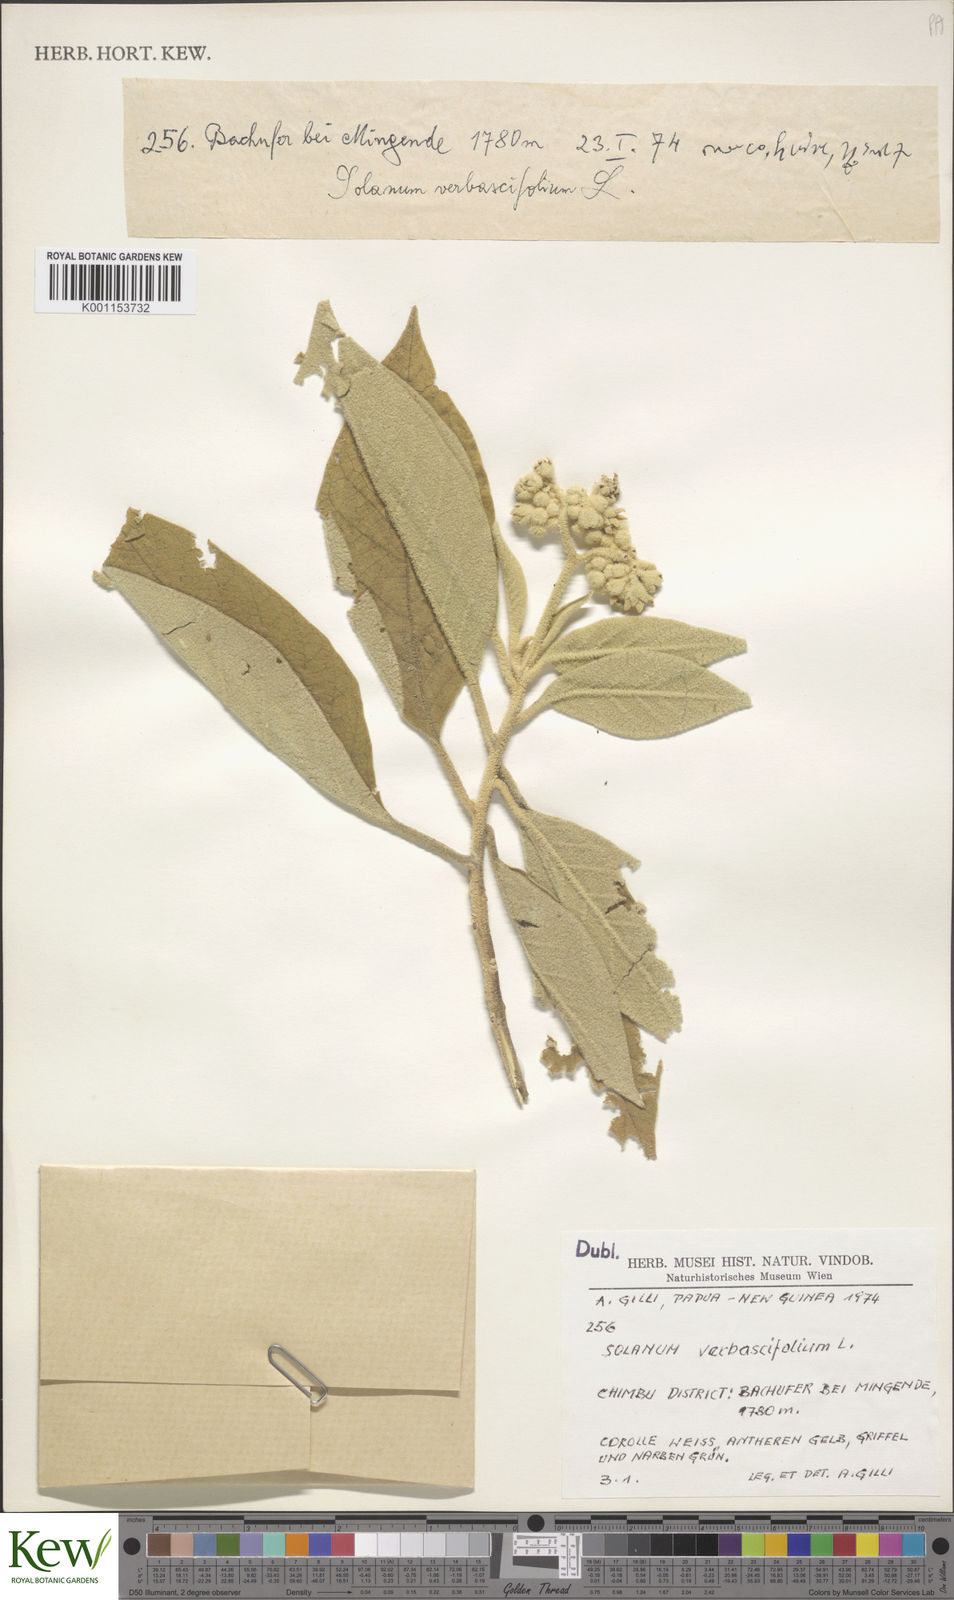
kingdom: Plantae
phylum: Tracheophyta
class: Magnoliopsida
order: Solanales
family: Solanaceae
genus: Solanum
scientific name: Solanum erianthum
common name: Tobacco-tree
